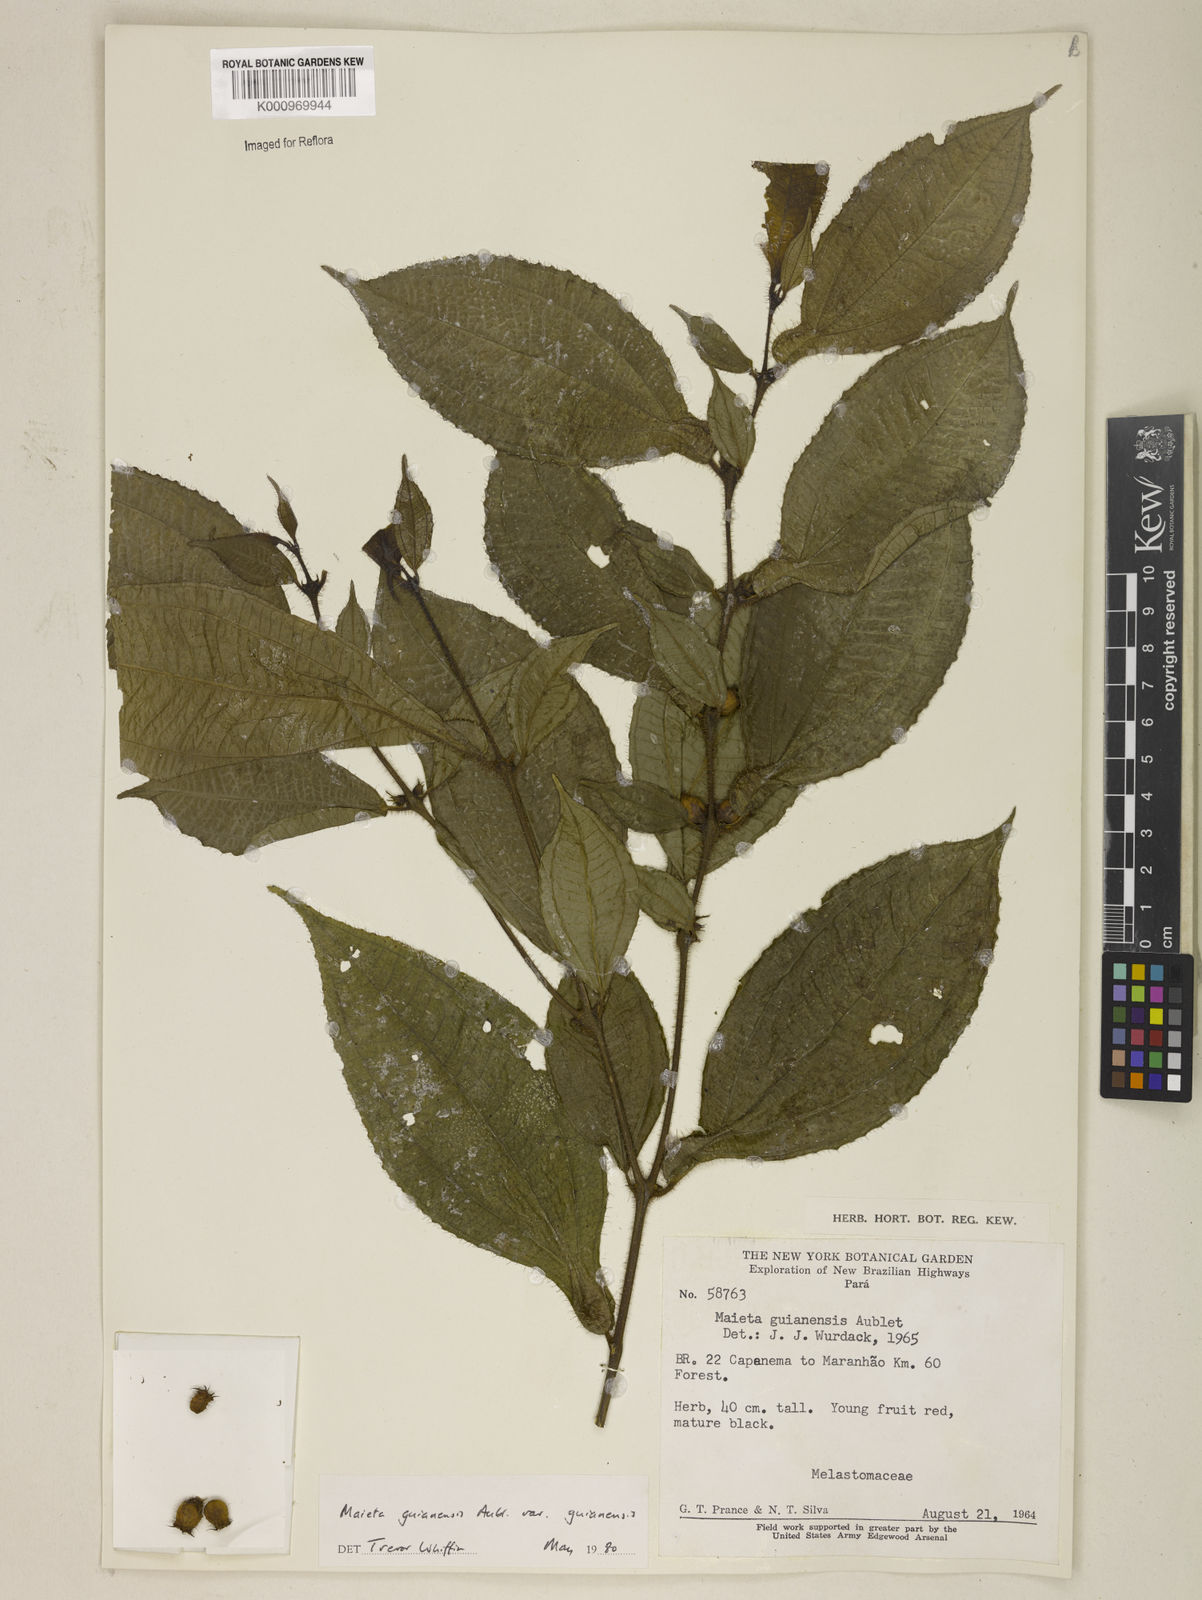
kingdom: Plantae
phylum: Tracheophyta
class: Magnoliopsida
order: Myrtales
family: Melastomataceae
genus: Miconia
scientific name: Miconia mayeta
